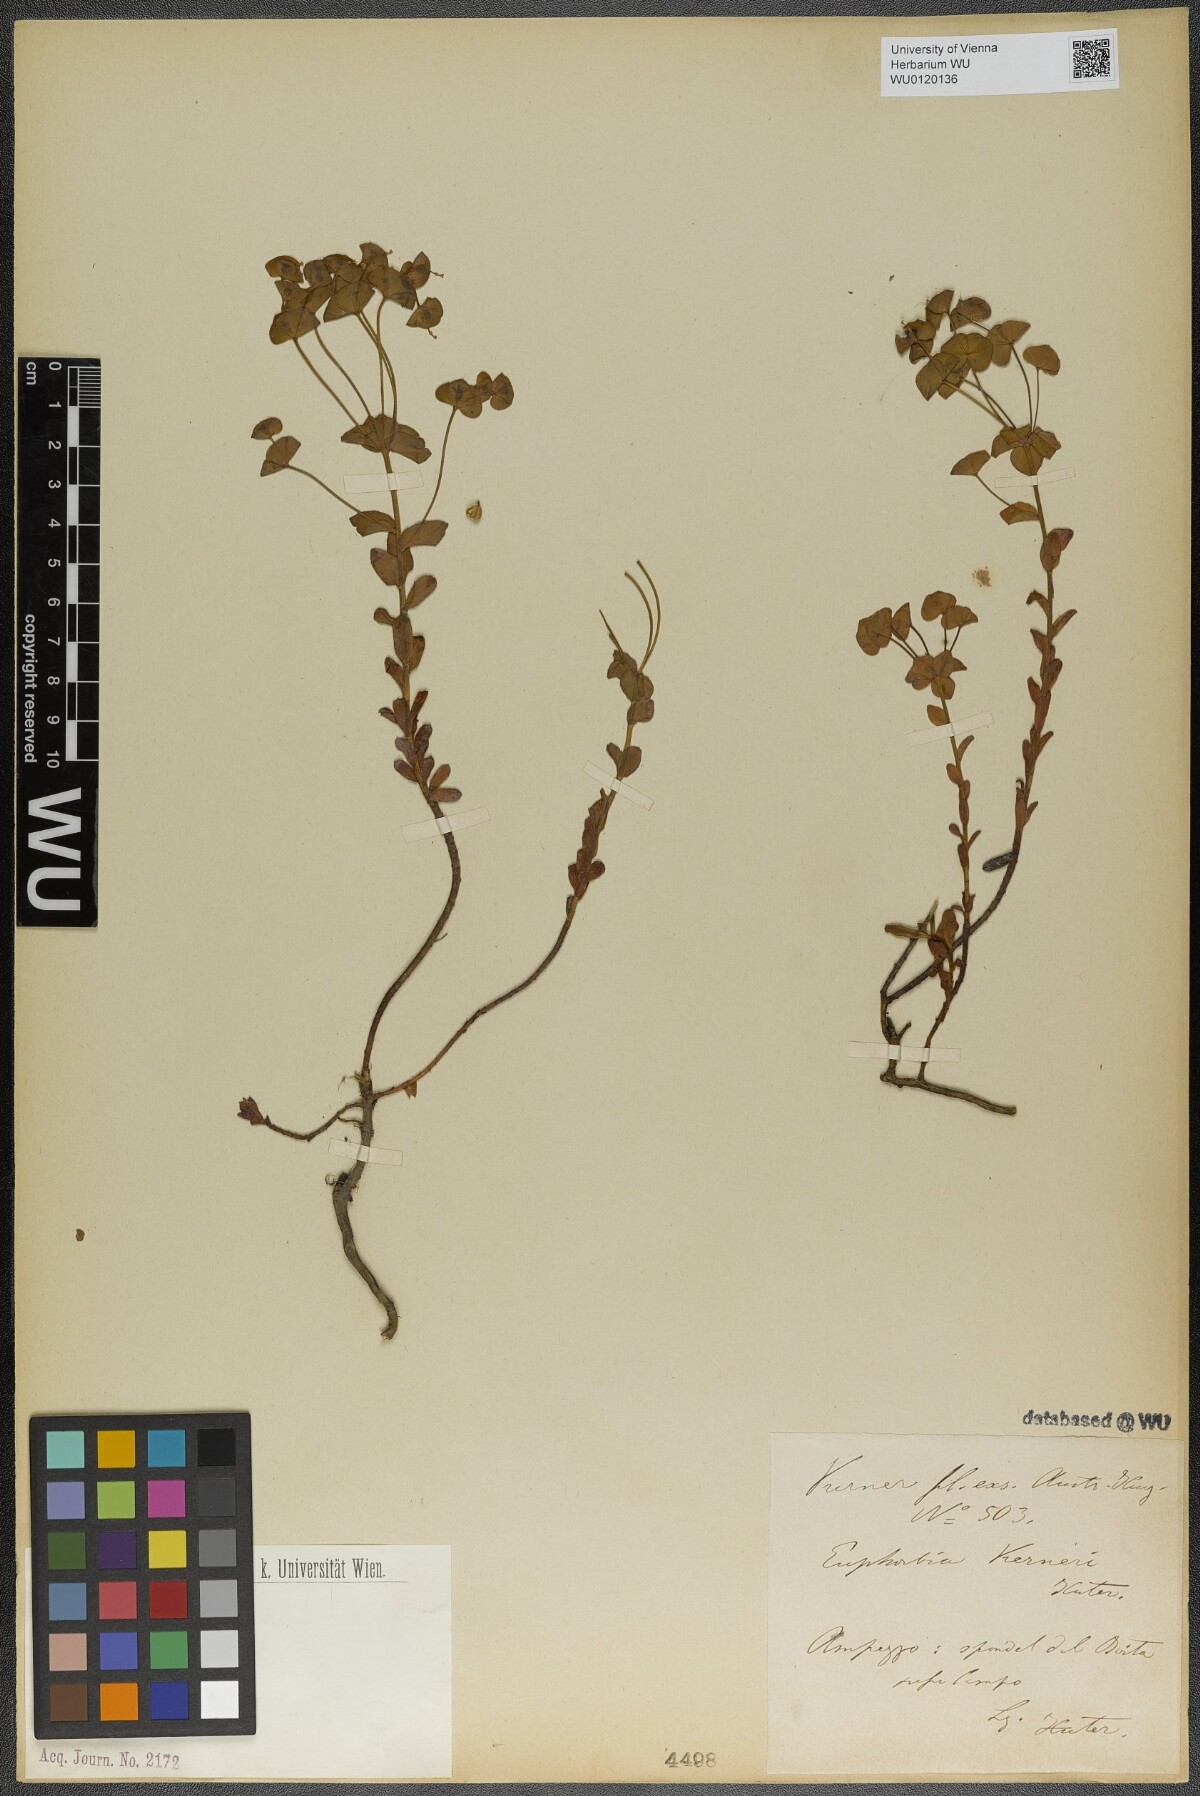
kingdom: Plantae
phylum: Tracheophyta
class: Magnoliopsida
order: Malpighiales
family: Euphorbiaceae
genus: Euphorbia
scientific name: Euphorbia kerneri
